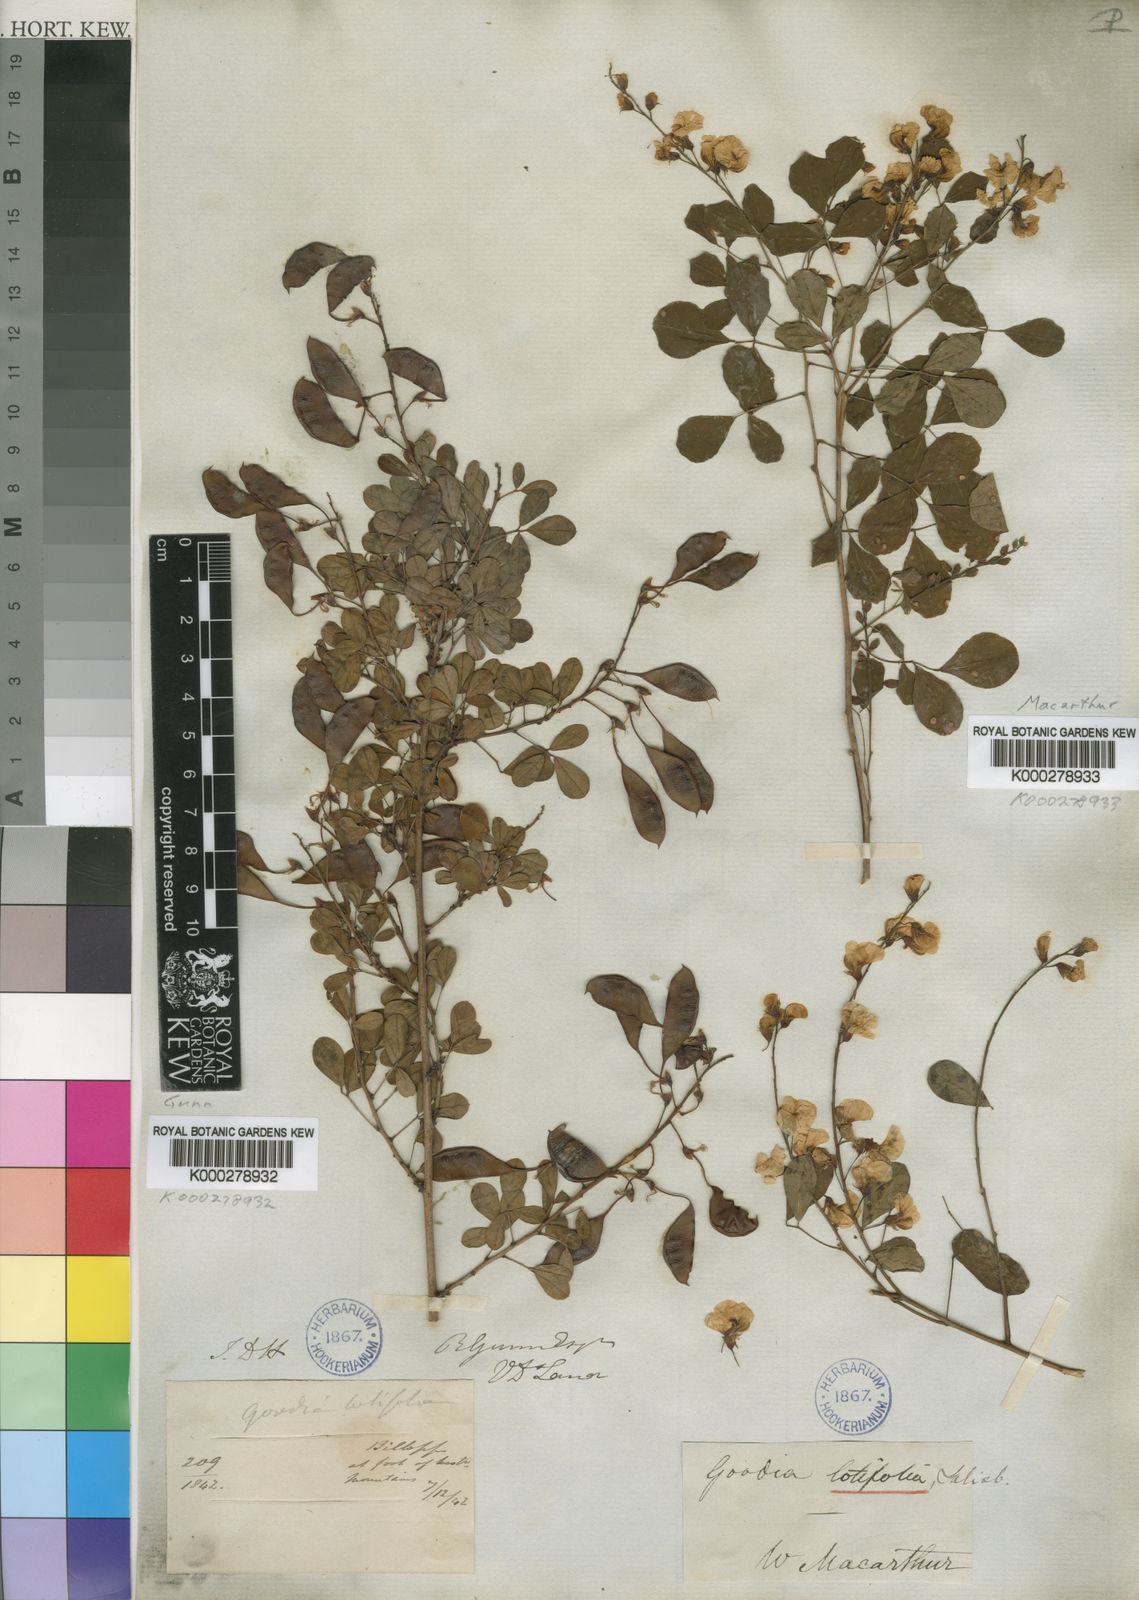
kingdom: Plantae
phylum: Tracheophyta
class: Magnoliopsida
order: Fabales
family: Fabaceae
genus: Goodia
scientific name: Goodia lotifolia
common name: Cloverleaf-poison
